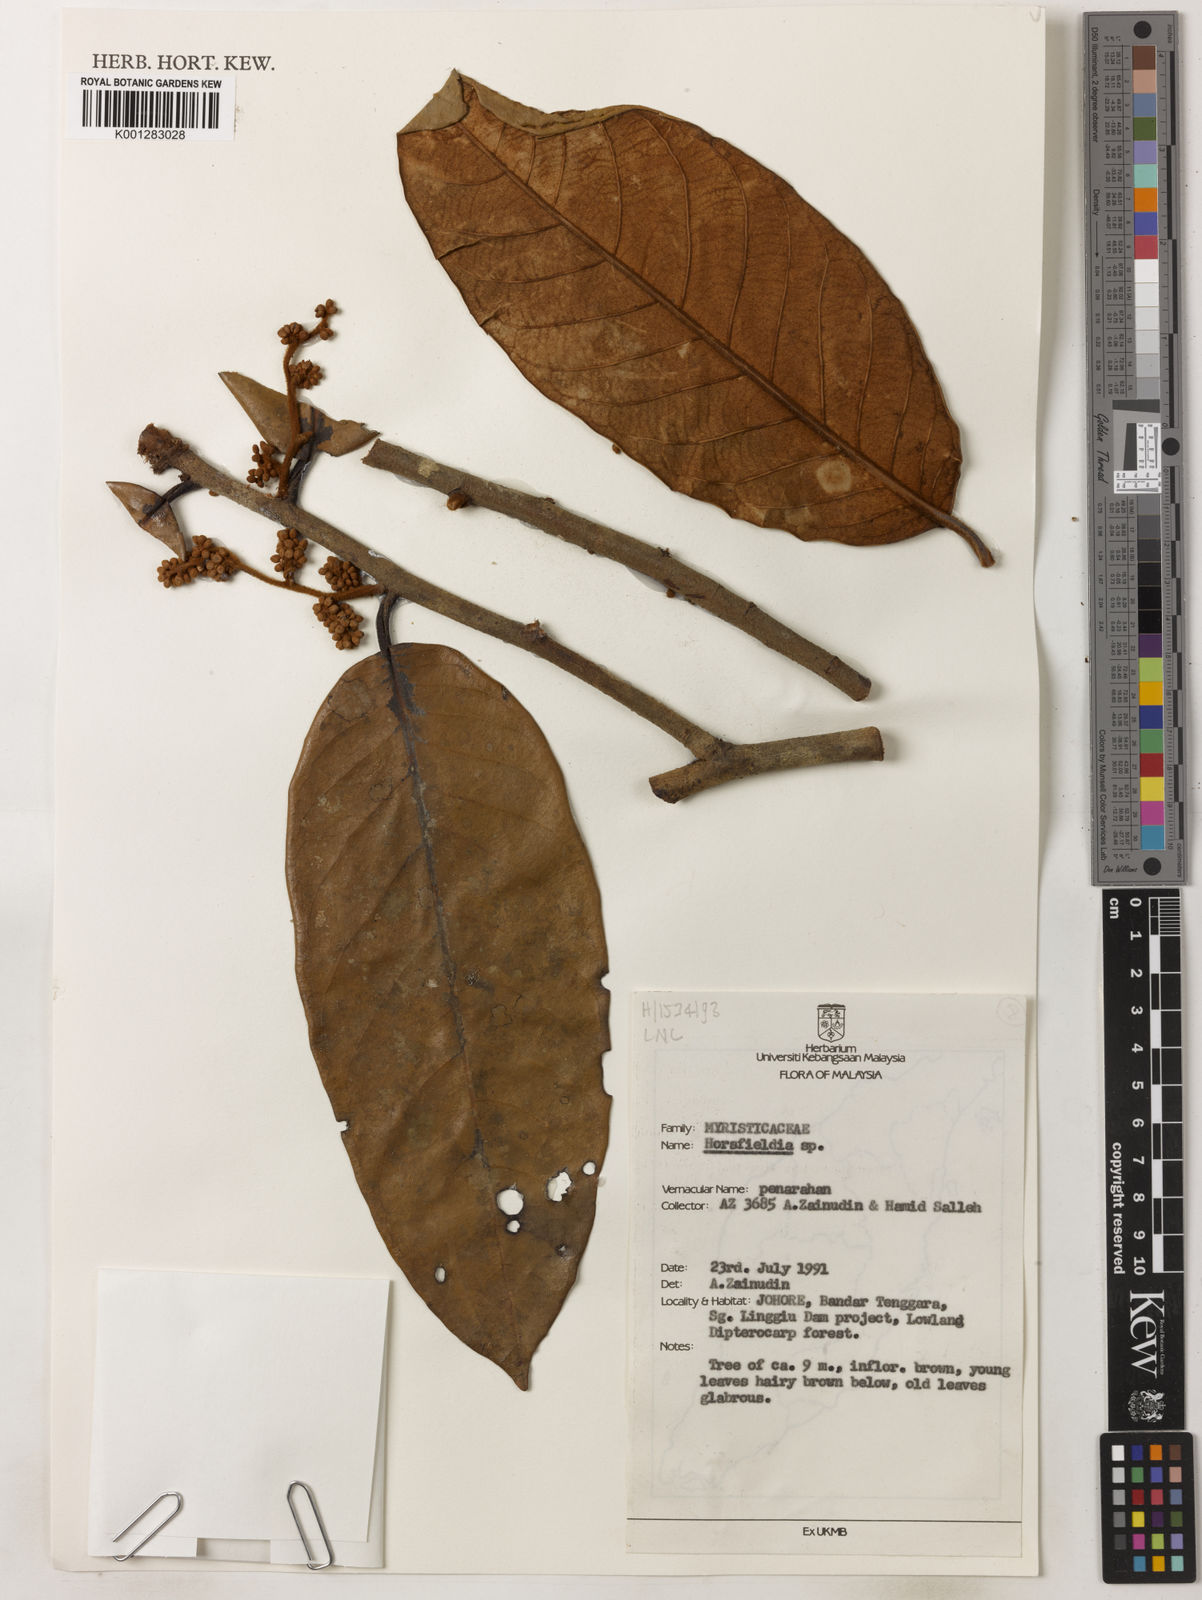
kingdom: Plantae
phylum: Tracheophyta
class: Magnoliopsida
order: Magnoliales
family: Myristicaceae
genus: Horsfieldia
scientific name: Horsfieldia
